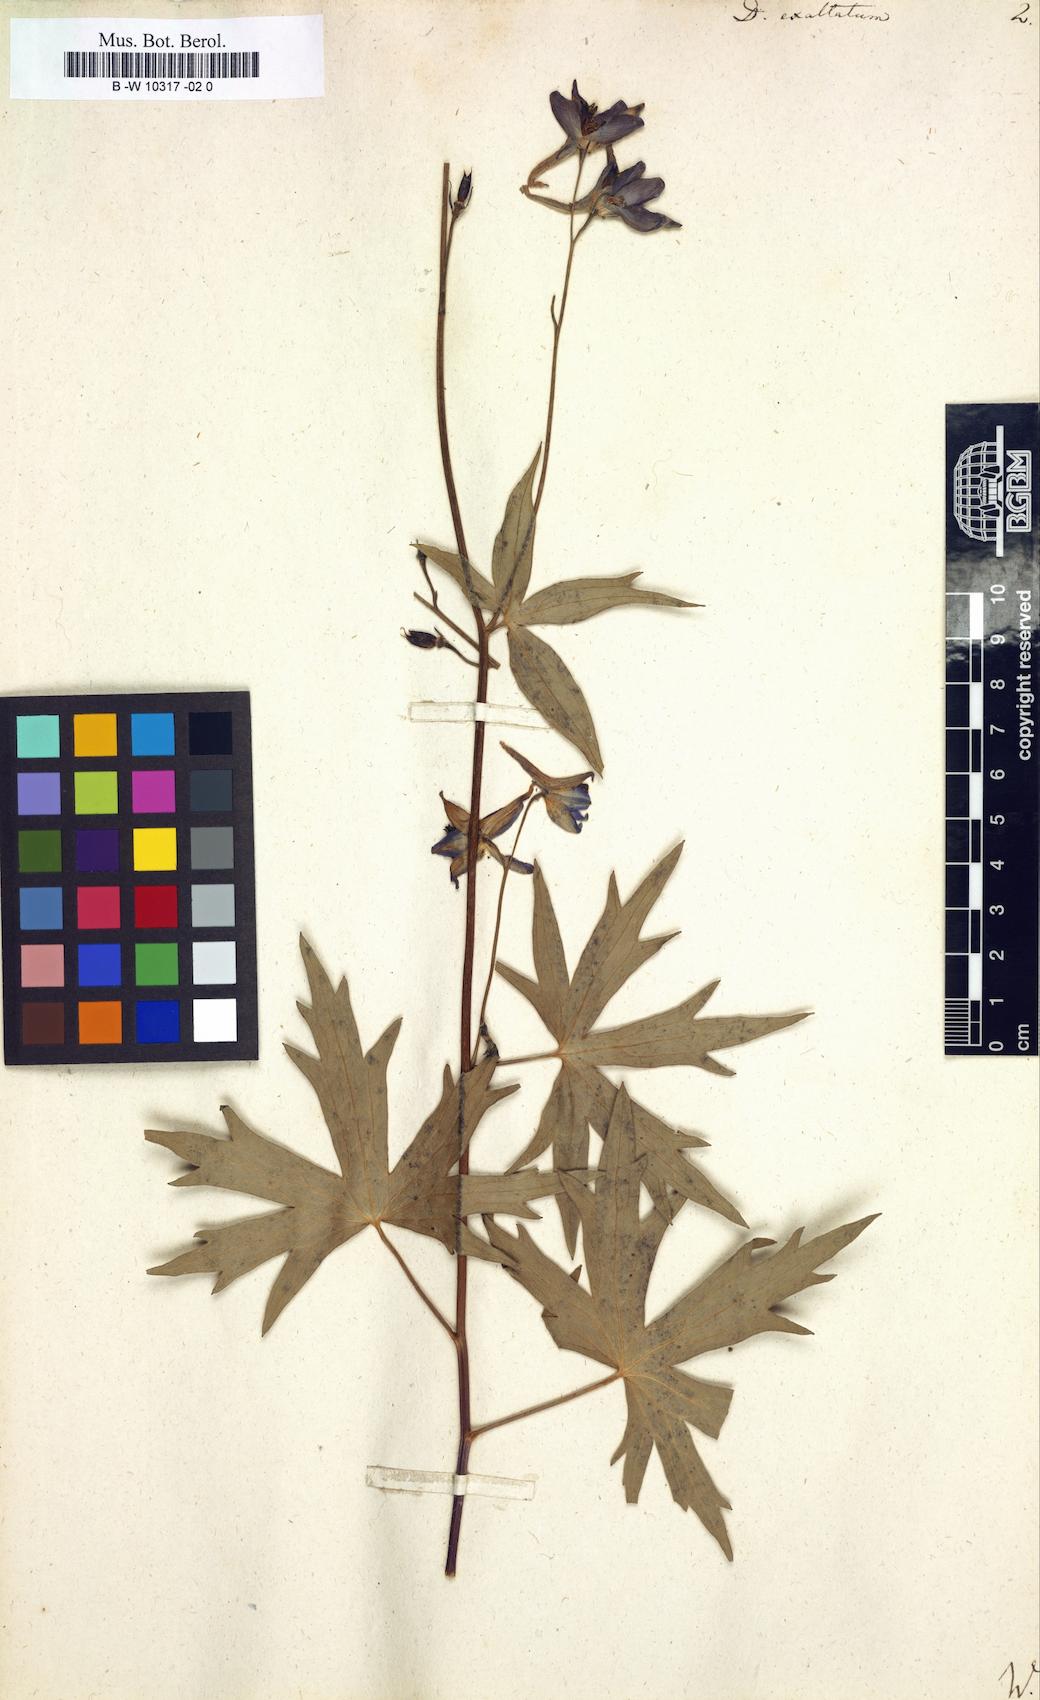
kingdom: Plantae
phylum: Tracheophyta
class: Magnoliopsida
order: Ranunculales
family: Ranunculaceae
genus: Delphinium
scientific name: Delphinium exaltatum
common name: Tall larkspur
